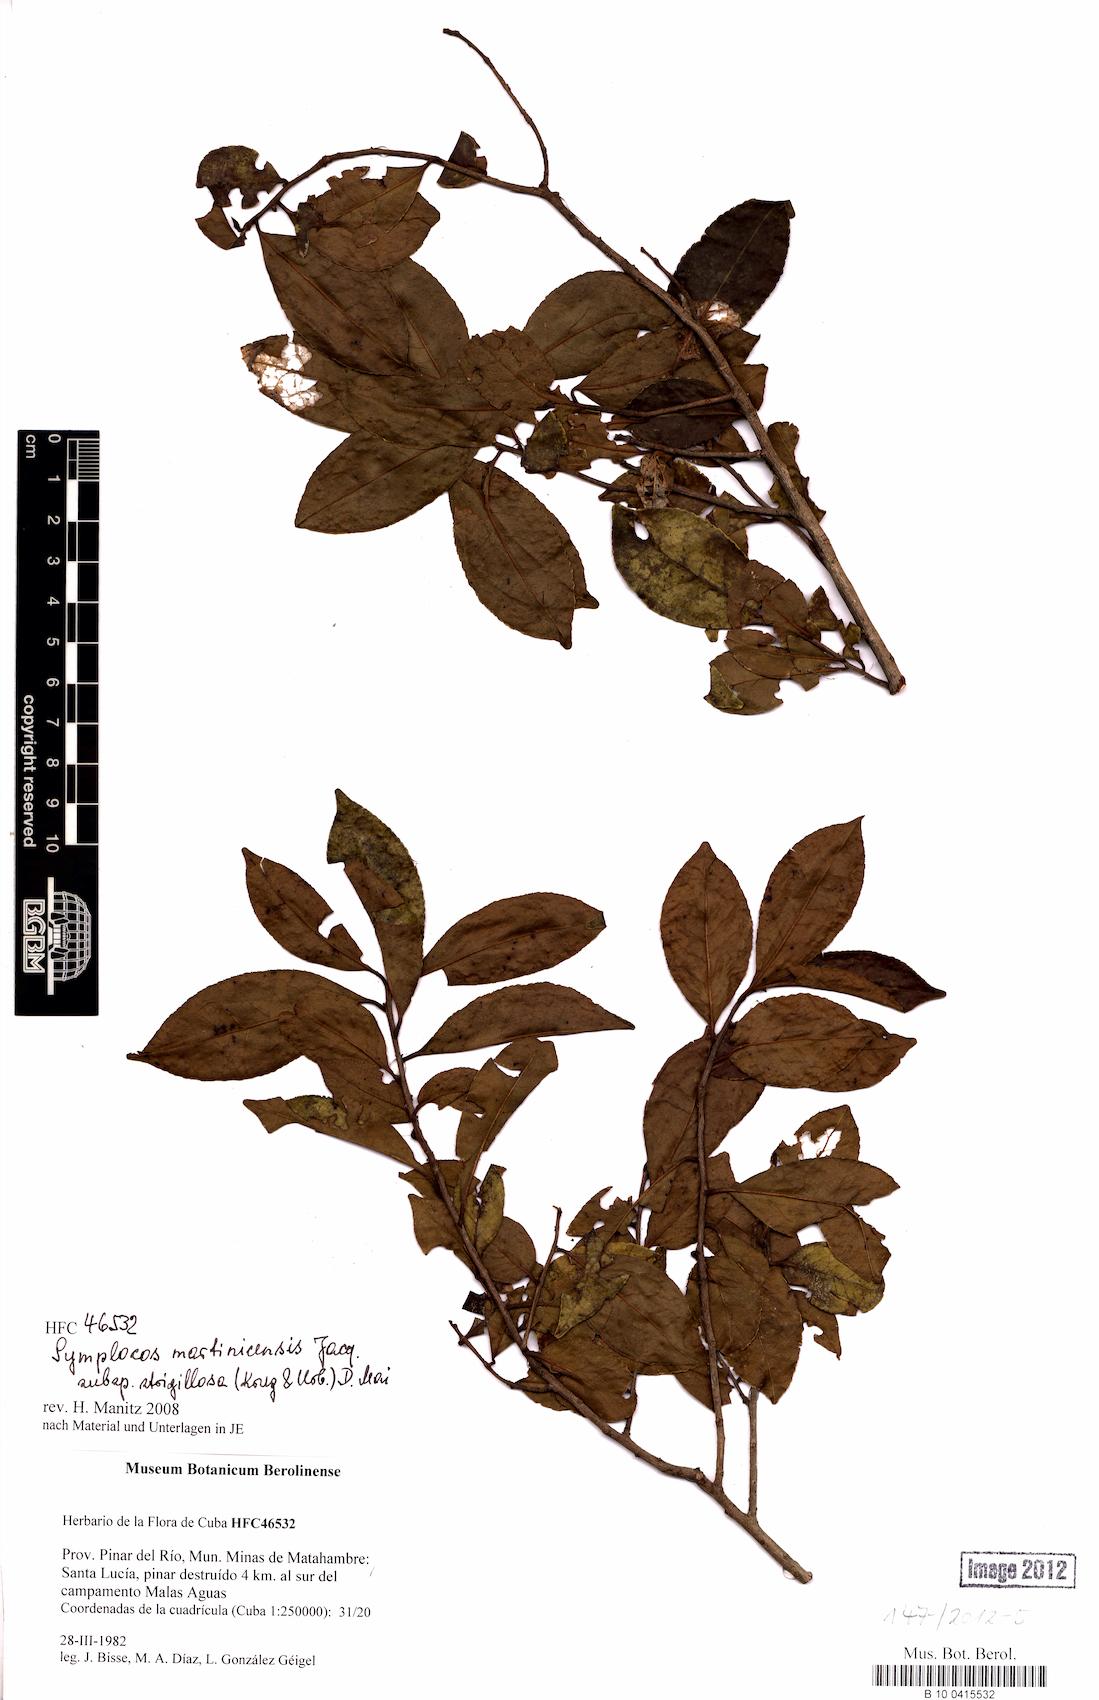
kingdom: Plantae
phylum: Tracheophyta
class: Magnoliopsida
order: Ericales
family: Symplocaceae
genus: Symplocos
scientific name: Symplocos jurgensenii
